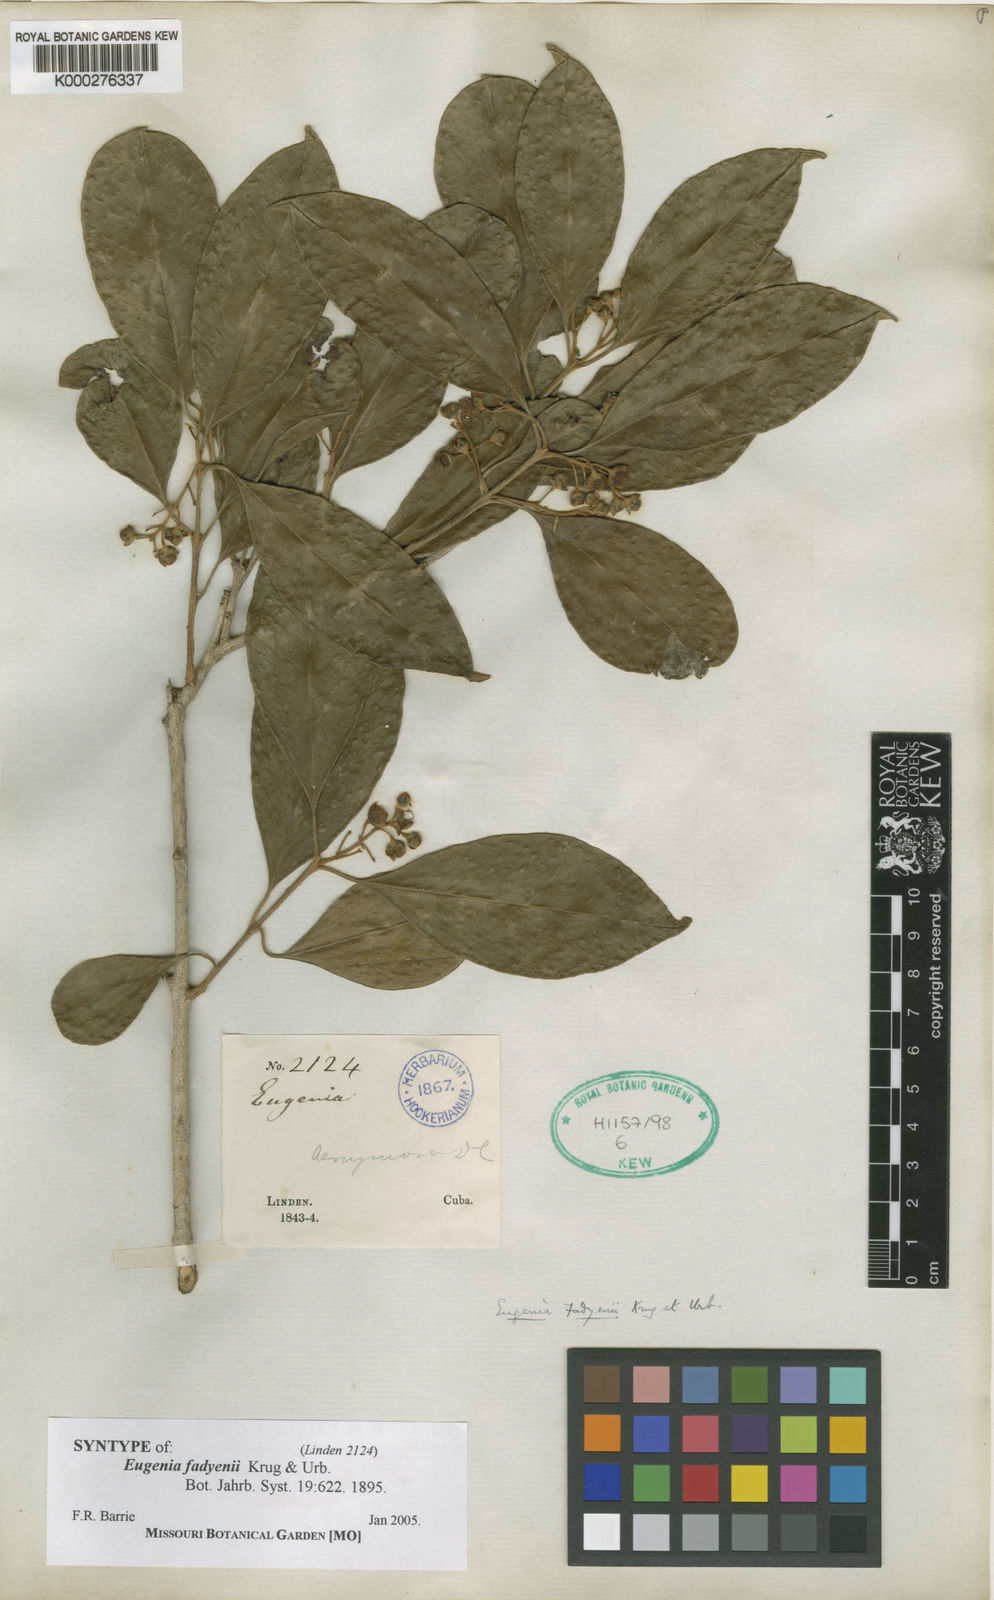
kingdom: Plantae
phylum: Tracheophyta
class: Magnoliopsida
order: Myrtales
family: Myrtaceae
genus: Eugenia
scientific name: Eugenia aeruginea
